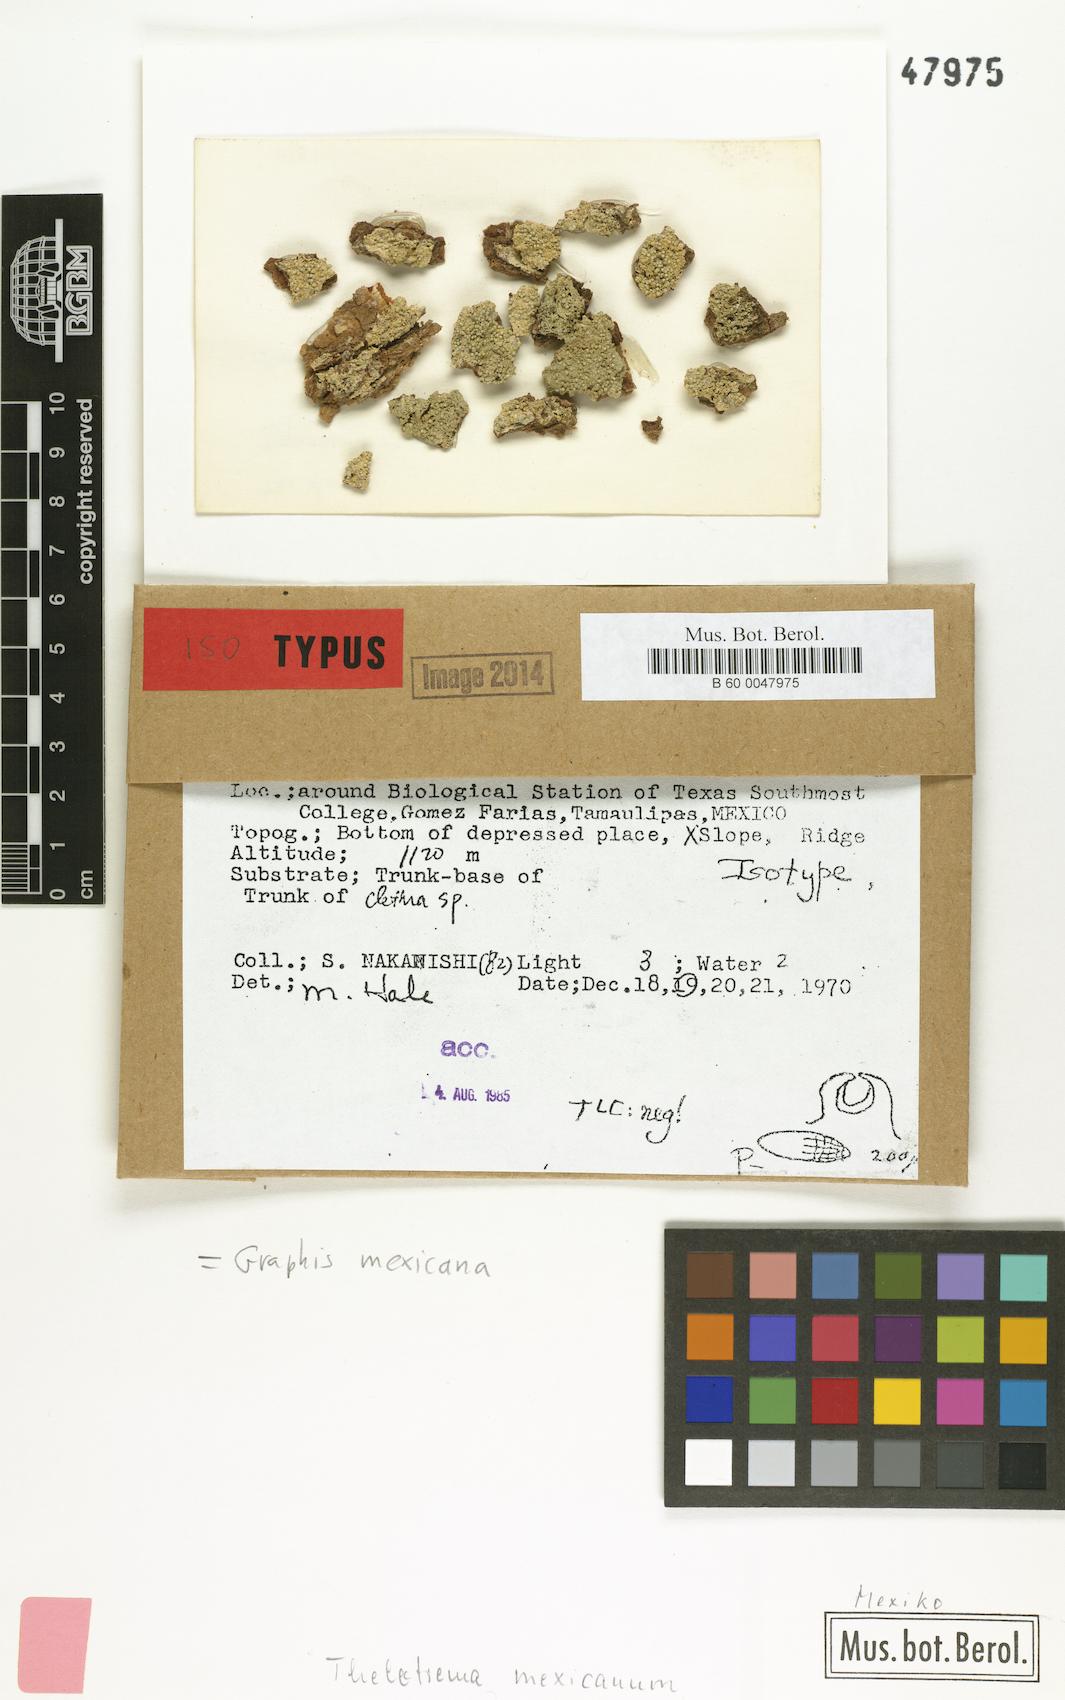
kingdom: Fungi
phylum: Ascomycota
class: Lecanoromycetes
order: Ostropales
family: Graphidaceae
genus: Allographa
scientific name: Allographa mexicana
